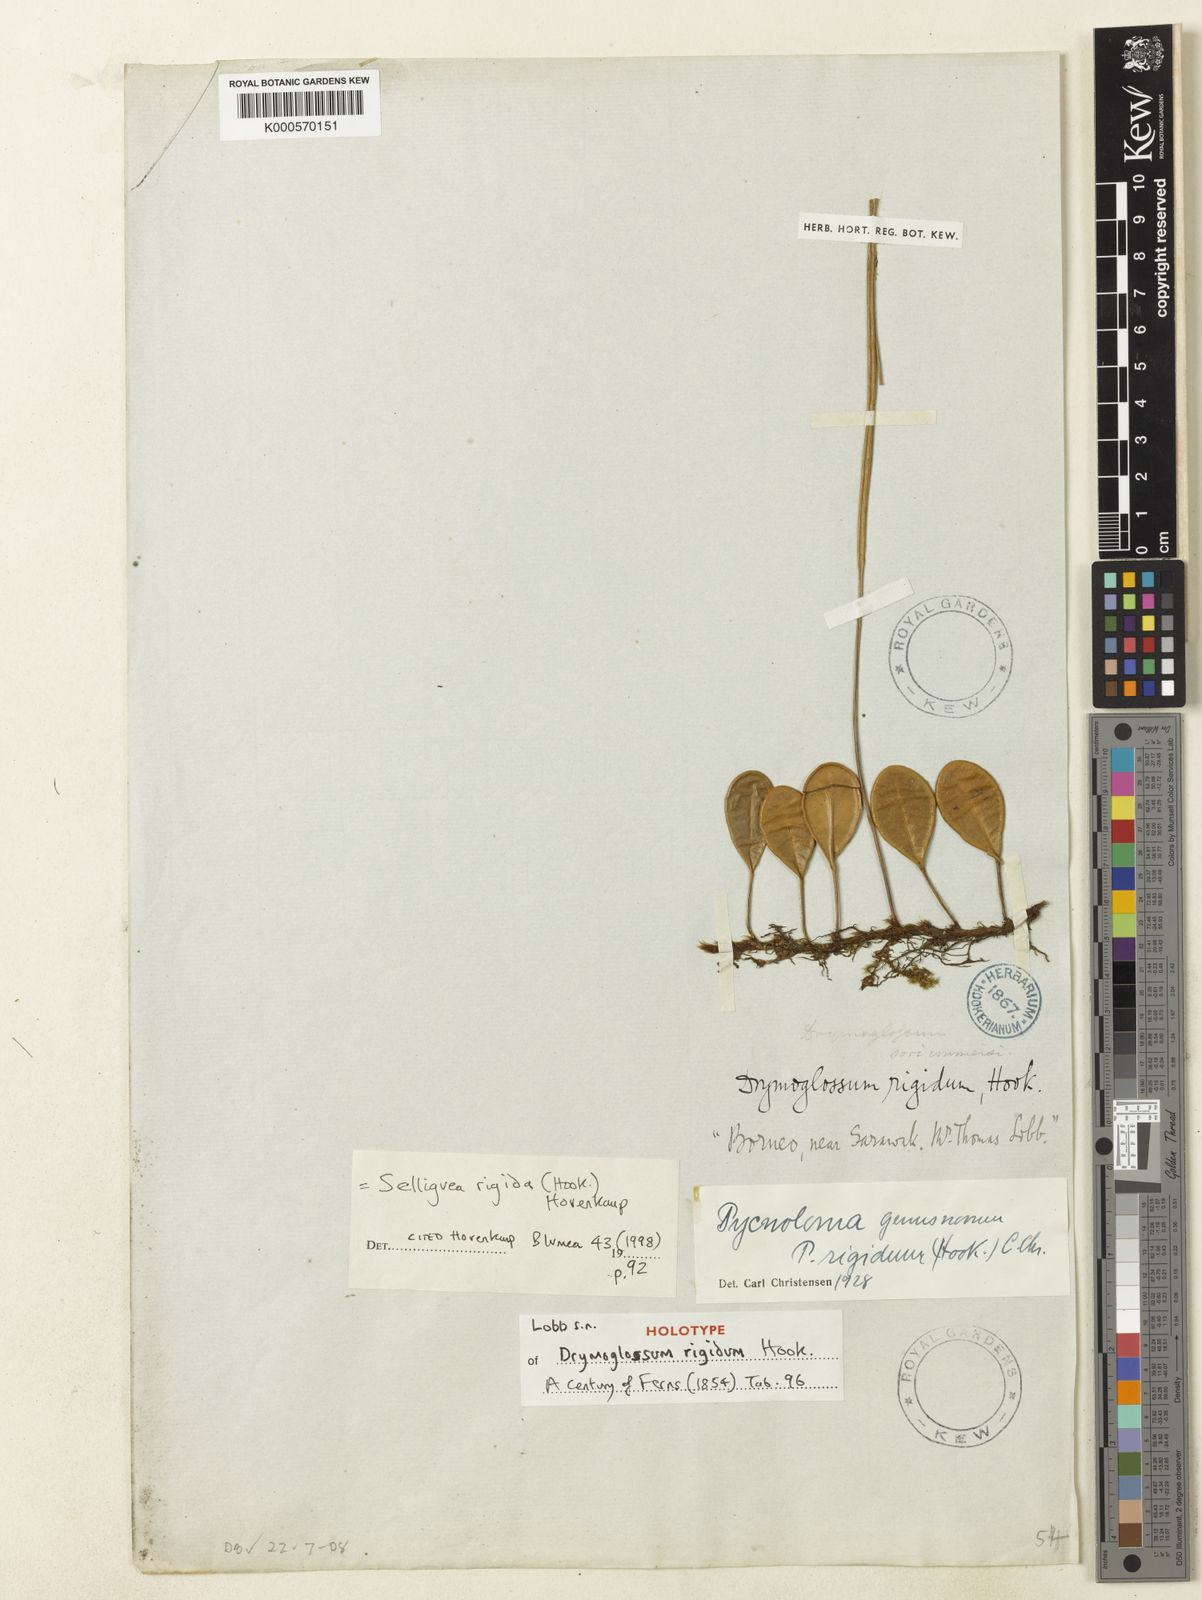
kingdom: Plantae
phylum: Tracheophyta
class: Polypodiopsida
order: Polypodiales
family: Polypodiaceae
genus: Selliguea
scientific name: Selliguea rigida
